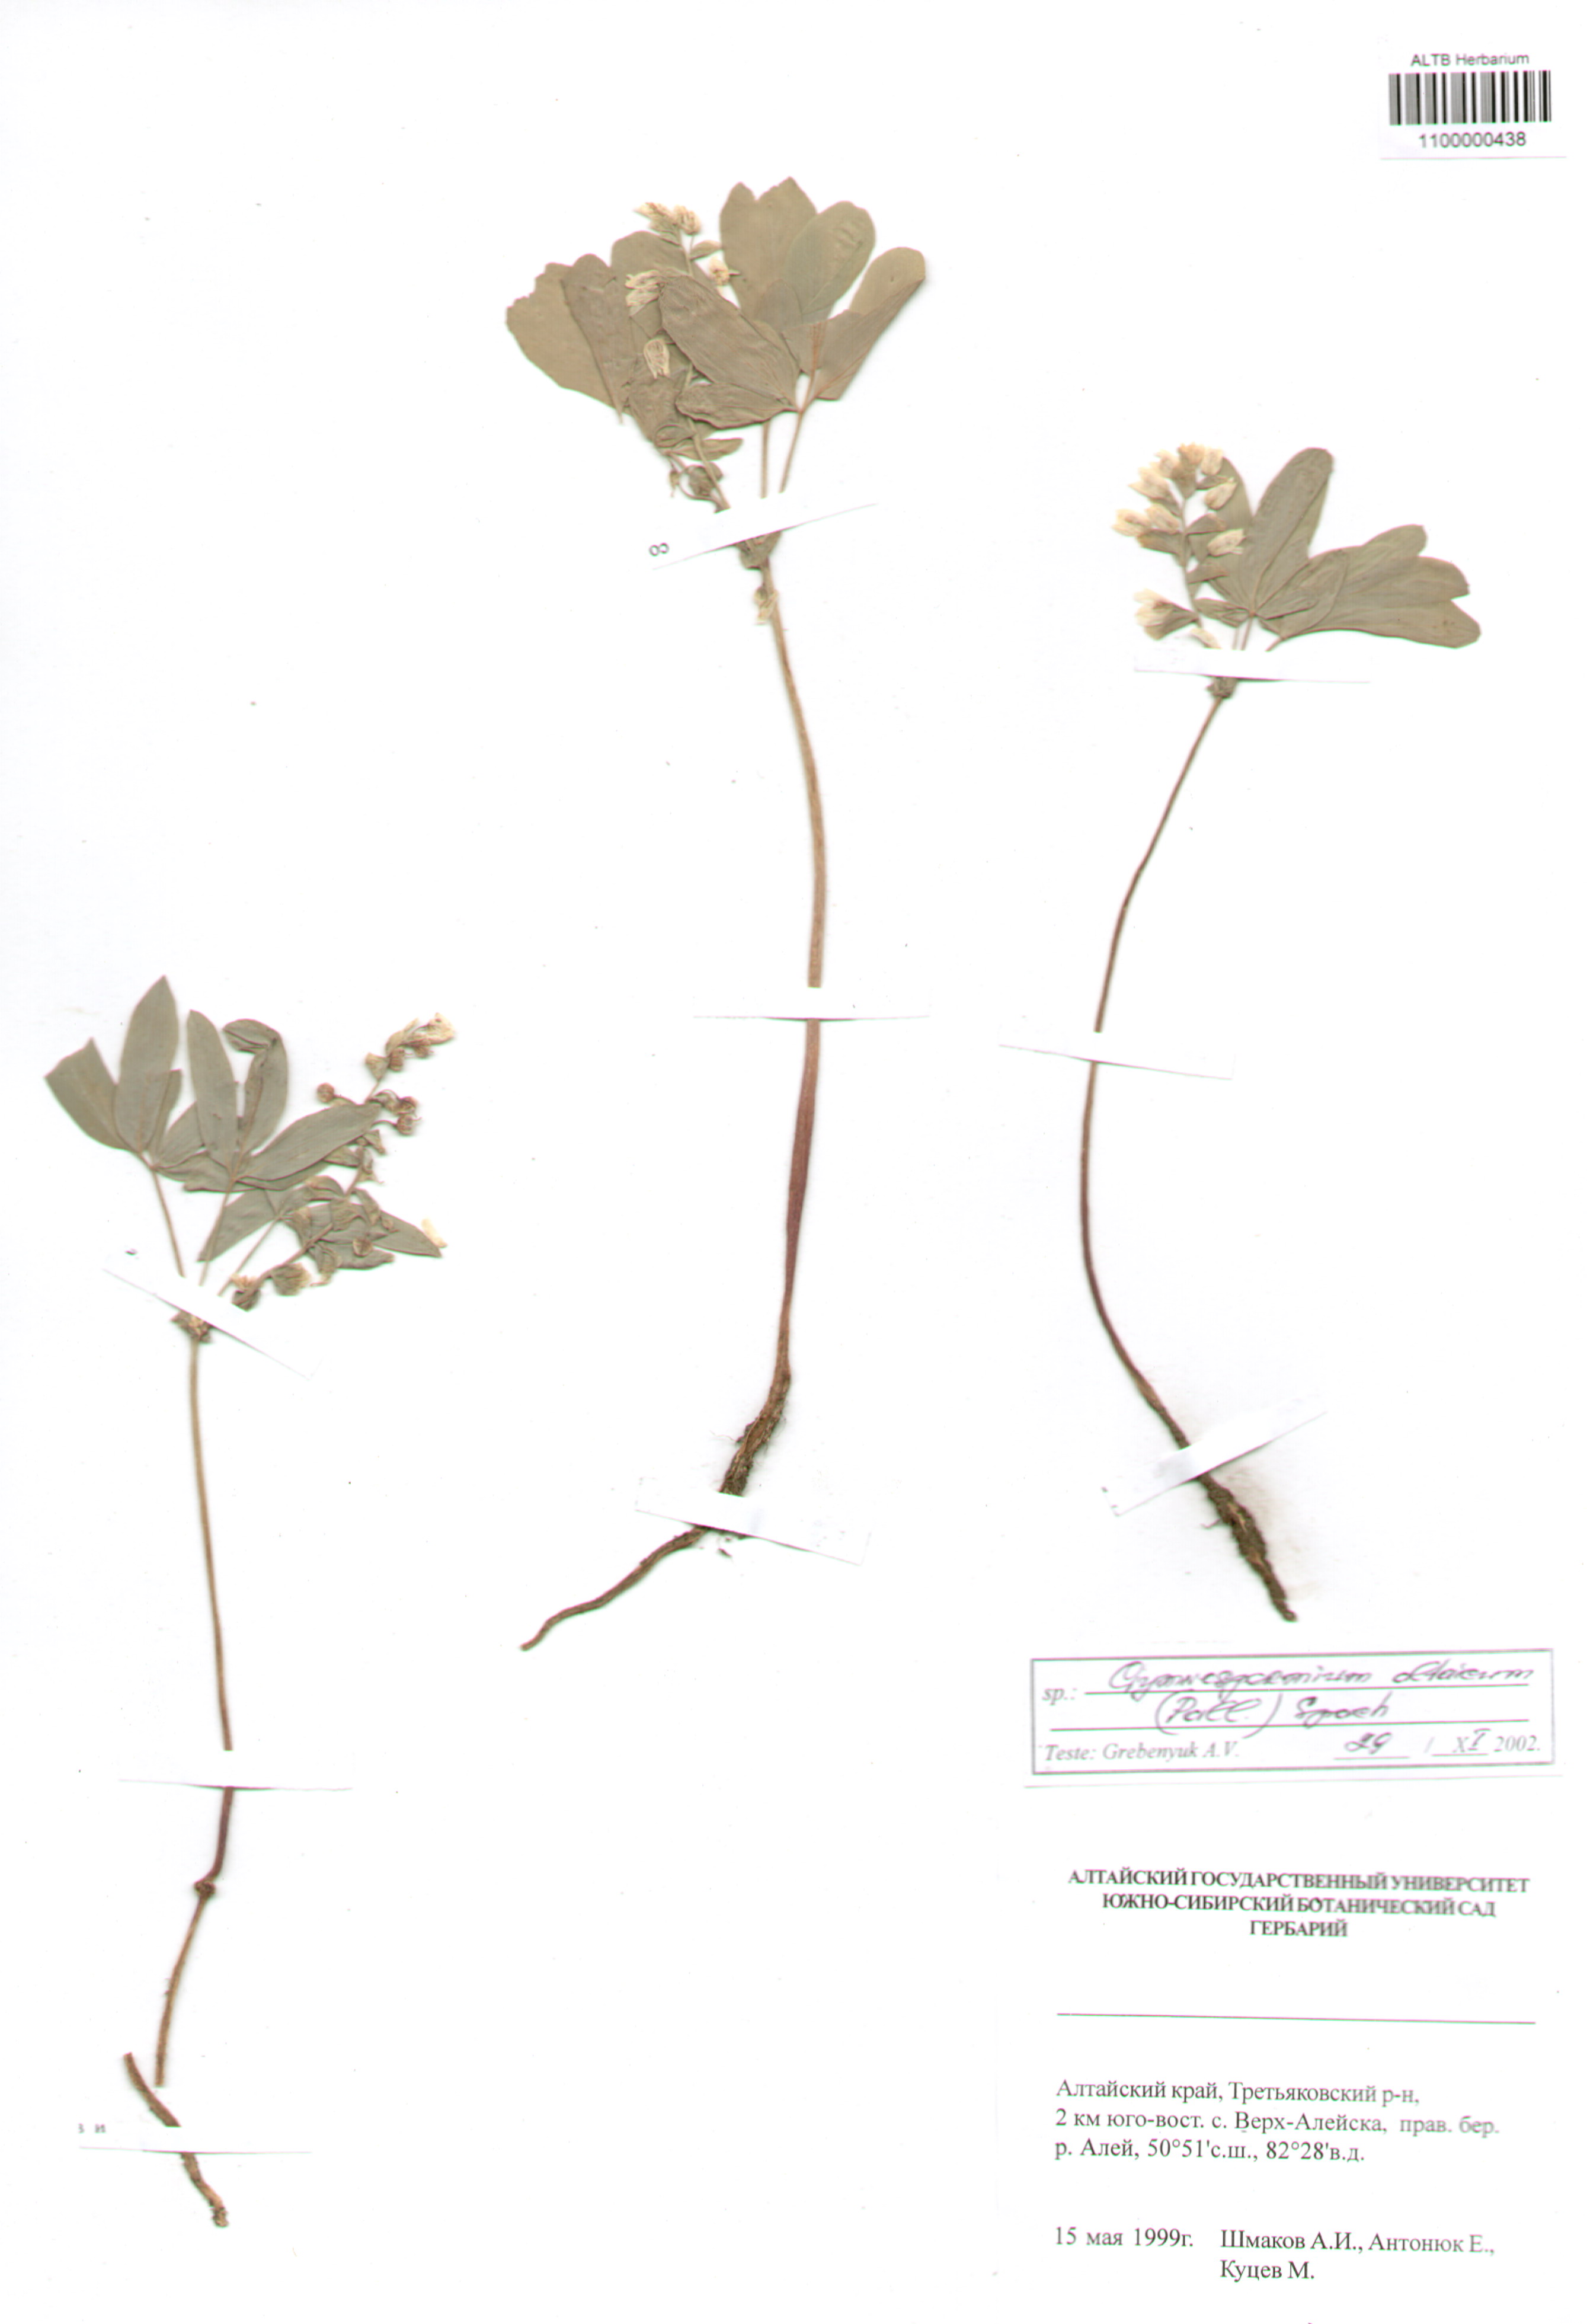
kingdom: Plantae
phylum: Tracheophyta
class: Magnoliopsida
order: Ranunculales
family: Berberidaceae
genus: Gymnospermium
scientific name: Gymnospermium altaicum
